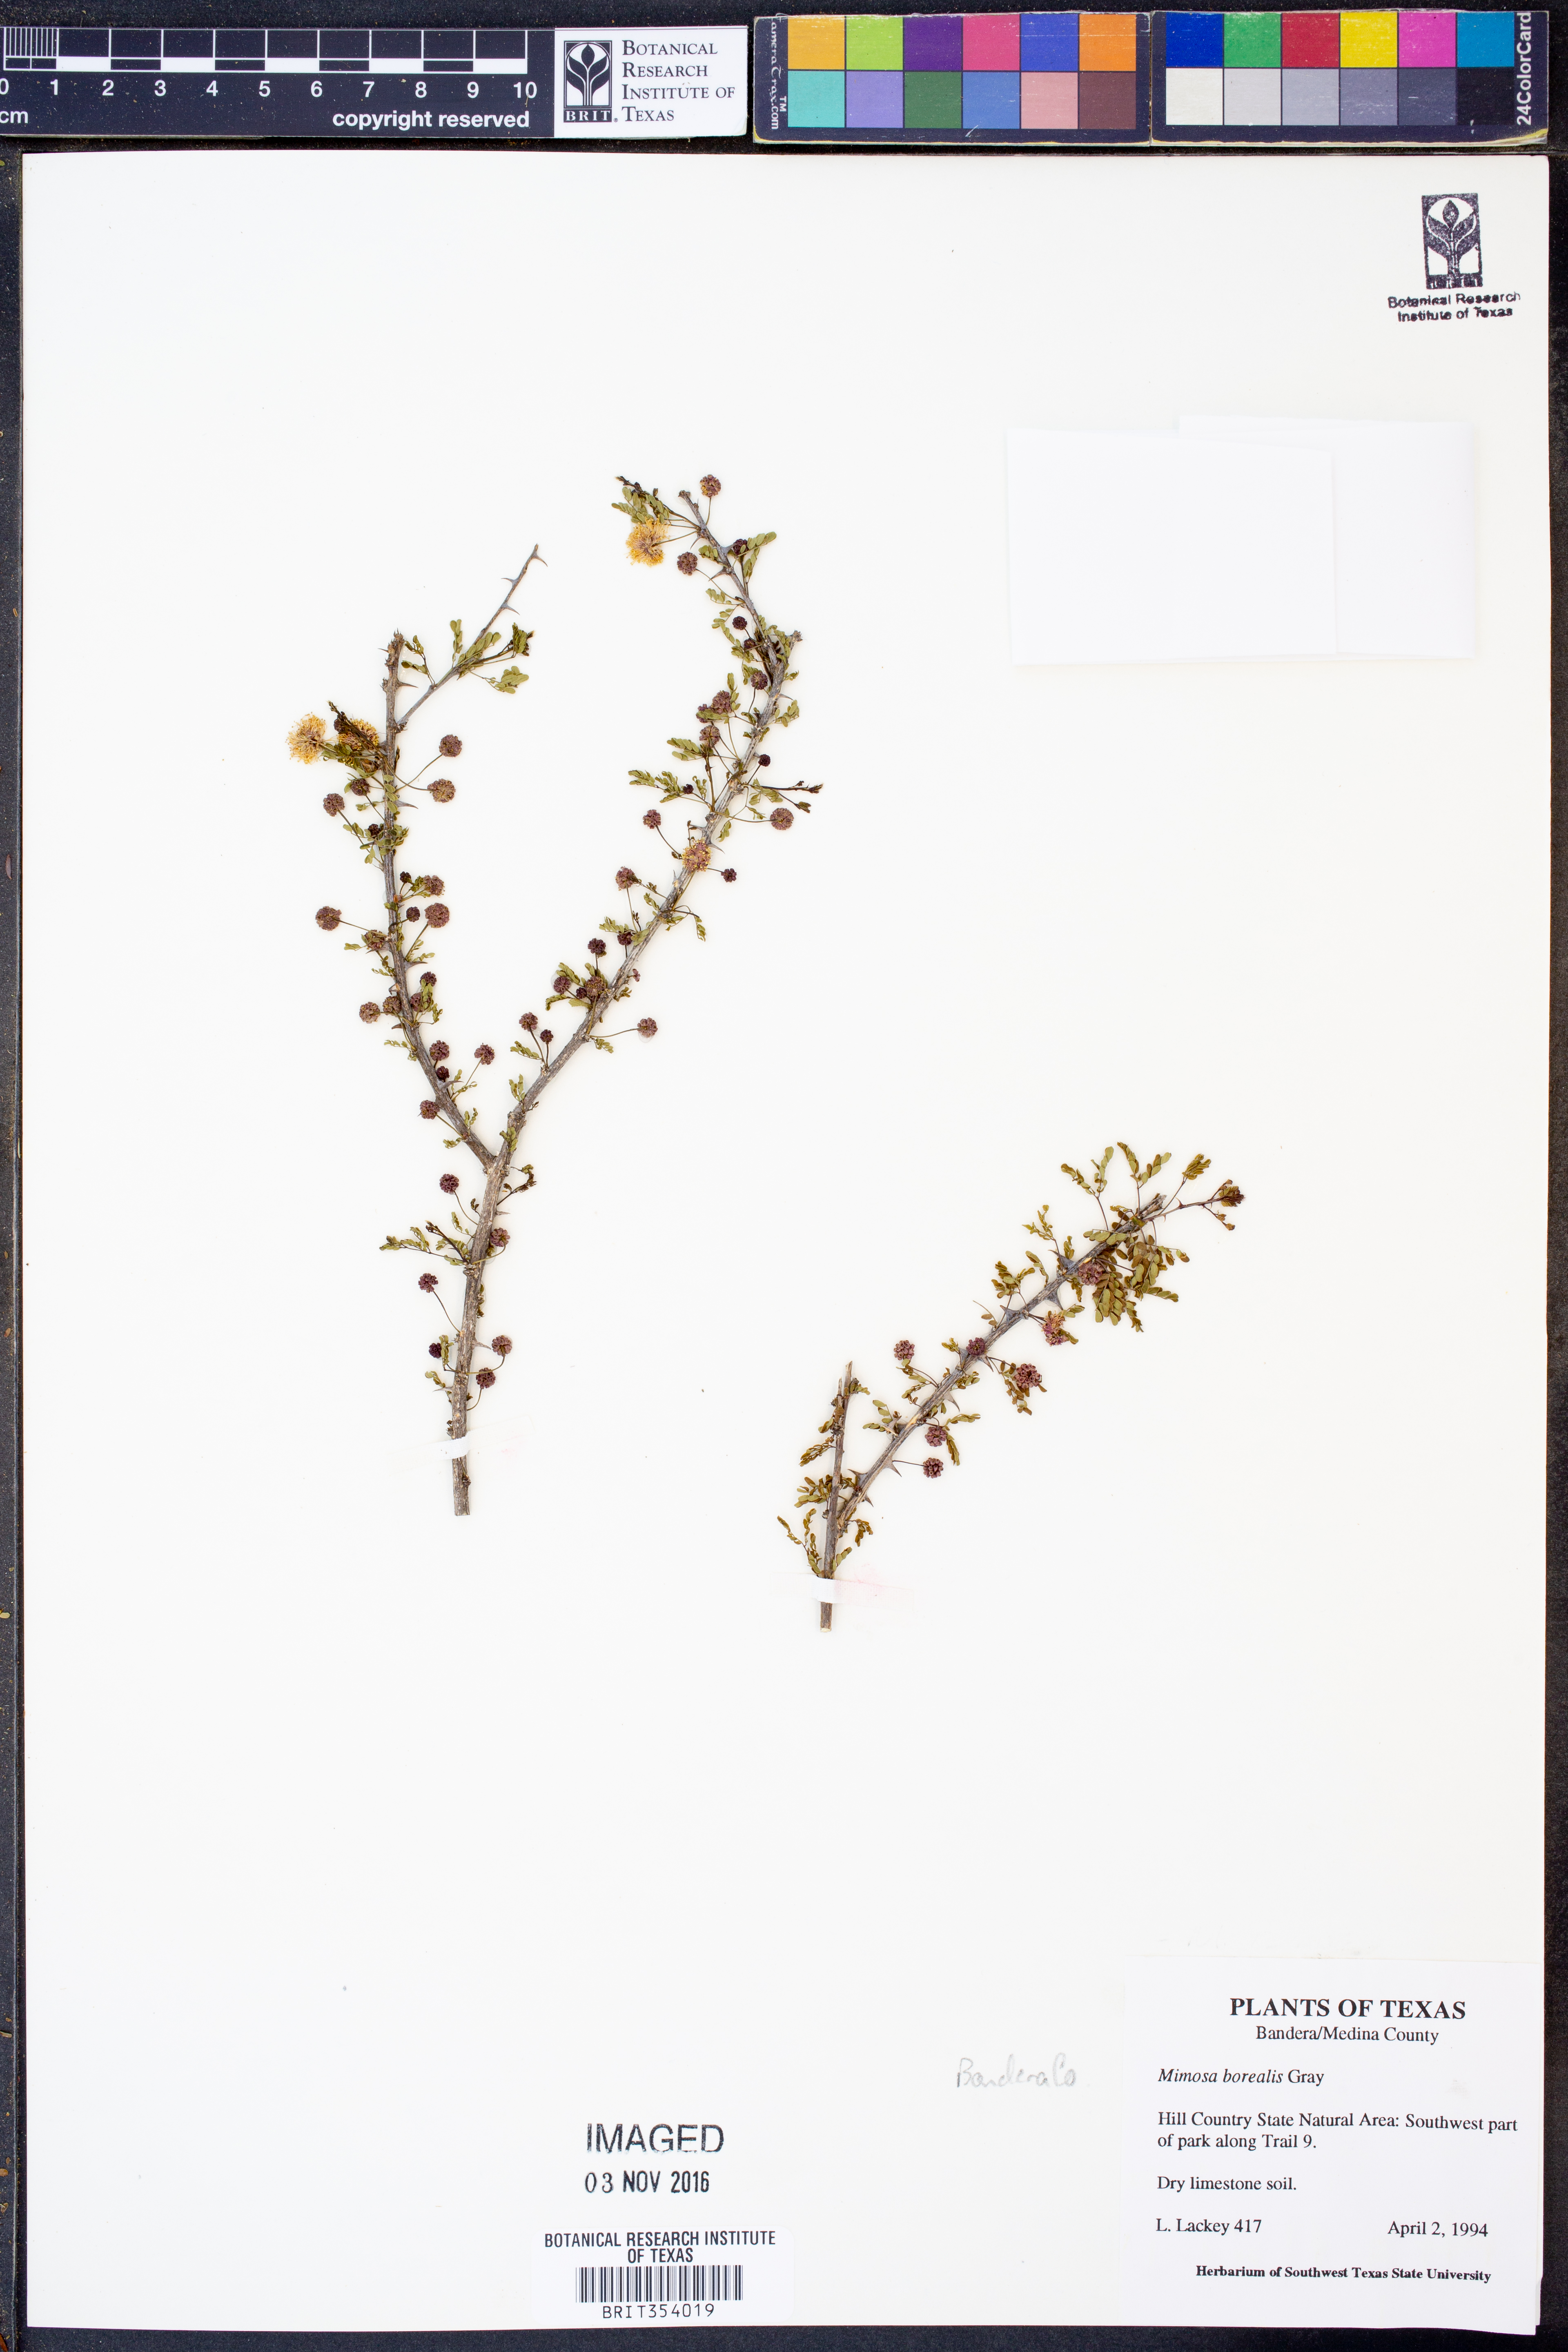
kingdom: Plantae
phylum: Tracheophyta
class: Magnoliopsida
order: Fabales
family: Fabaceae
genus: Mimosa
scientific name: Mimosa borealis
